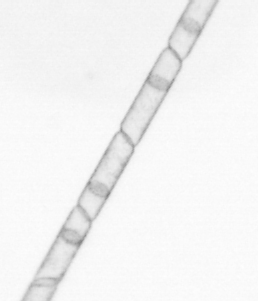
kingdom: Chromista
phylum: Ochrophyta
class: Bacillariophyceae
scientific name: Bacillariophyceae
